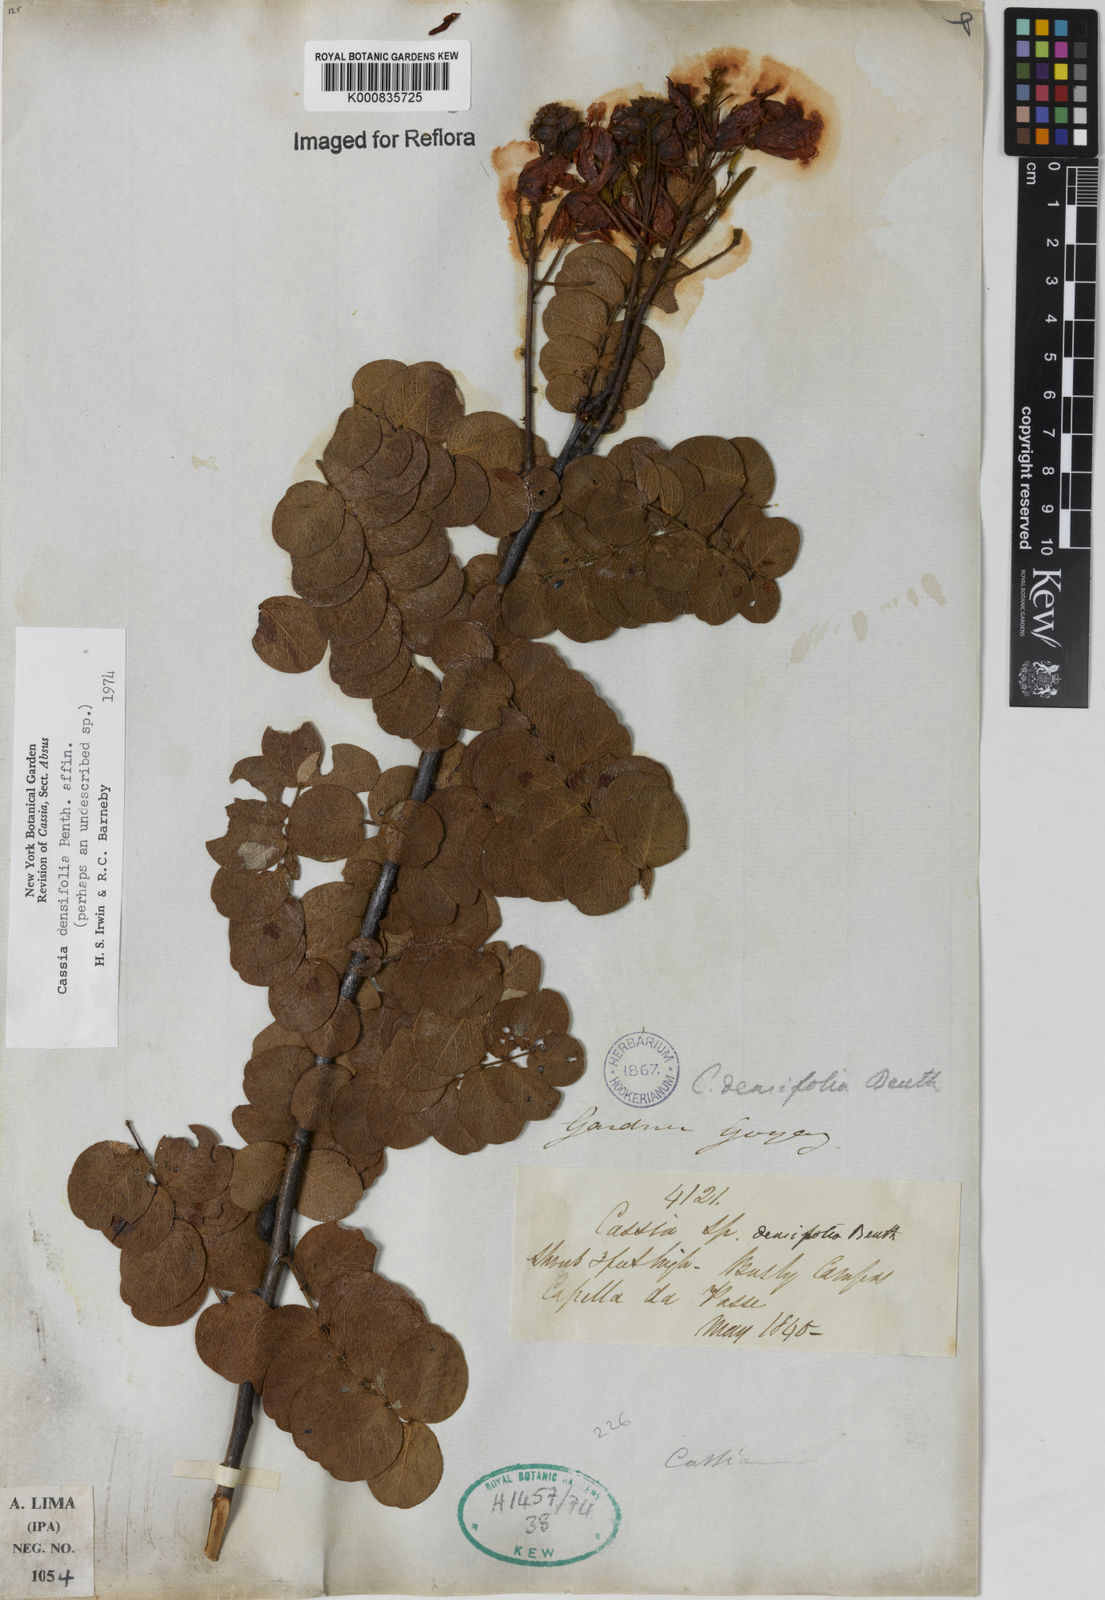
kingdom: Plantae
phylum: Tracheophyta
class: Magnoliopsida
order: Fabales
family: Fabaceae
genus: Chamaecrista
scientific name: Chamaecrista densifolia
